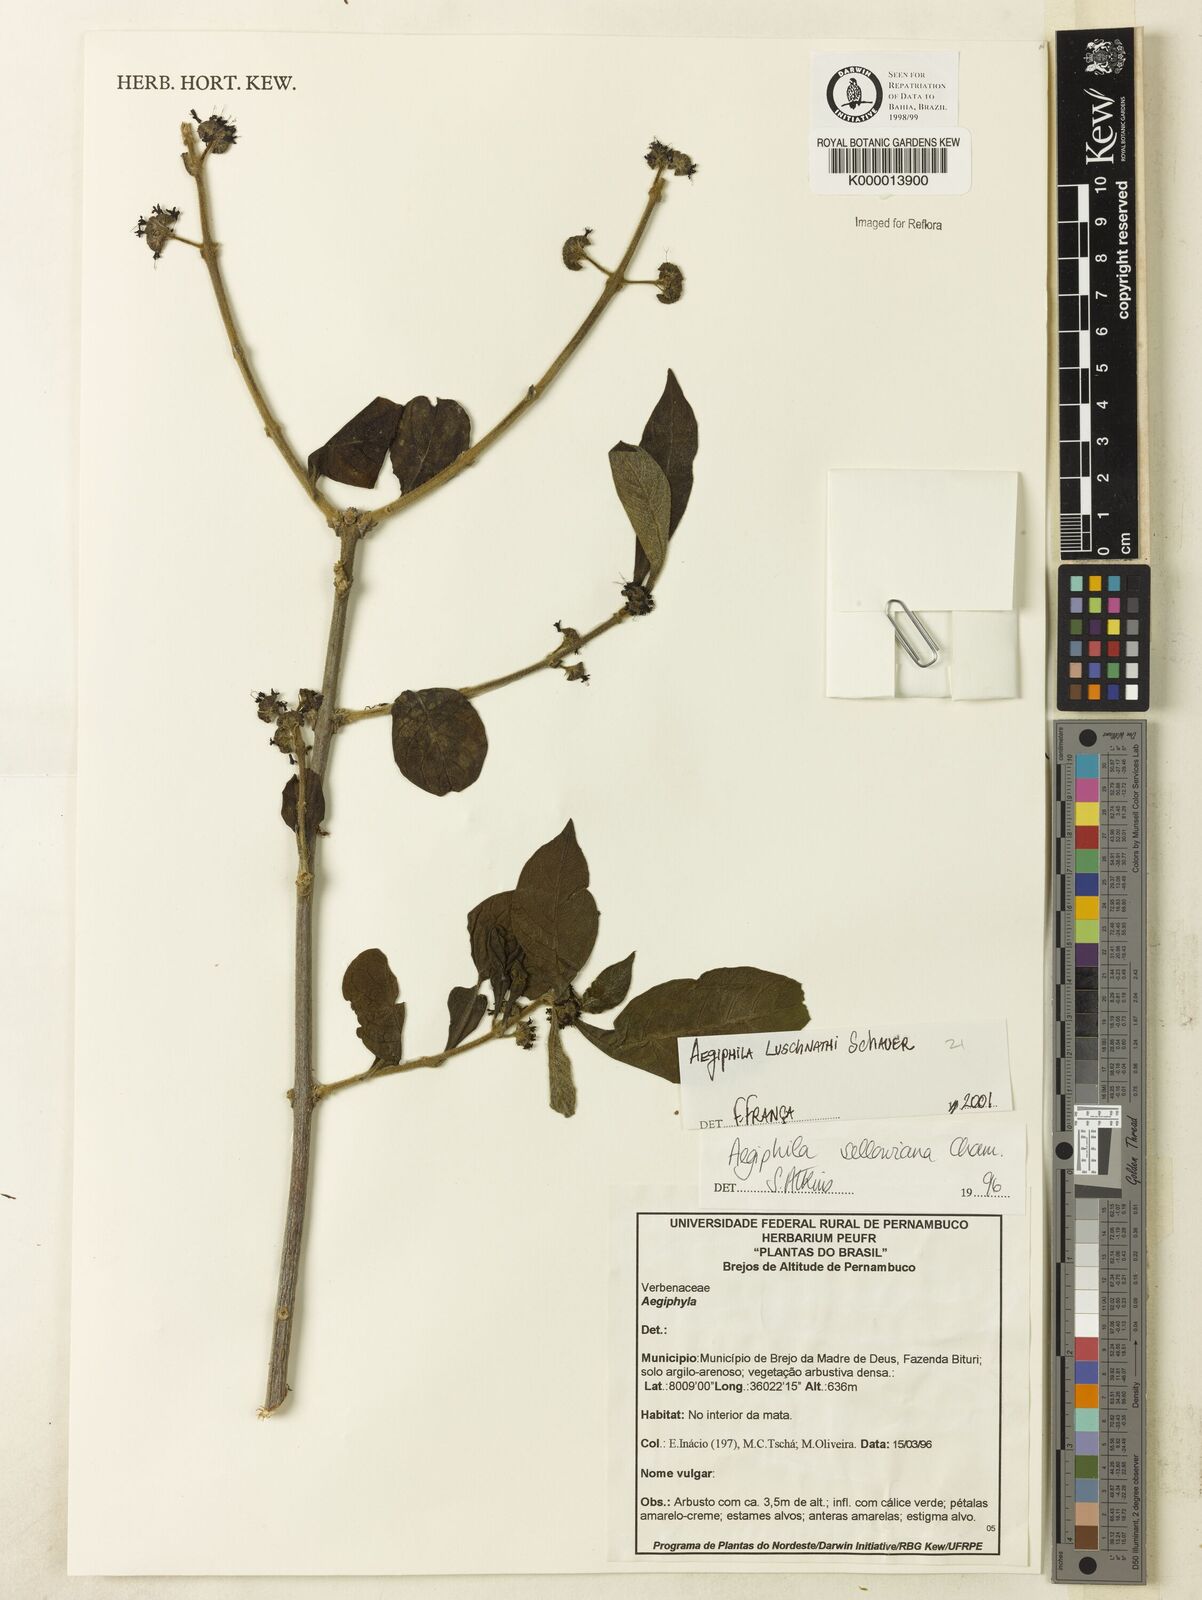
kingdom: Plantae
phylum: Tracheophyta
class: Magnoliopsida
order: Lamiales
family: Lamiaceae
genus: Aegiphila
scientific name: Aegiphila verticillata
